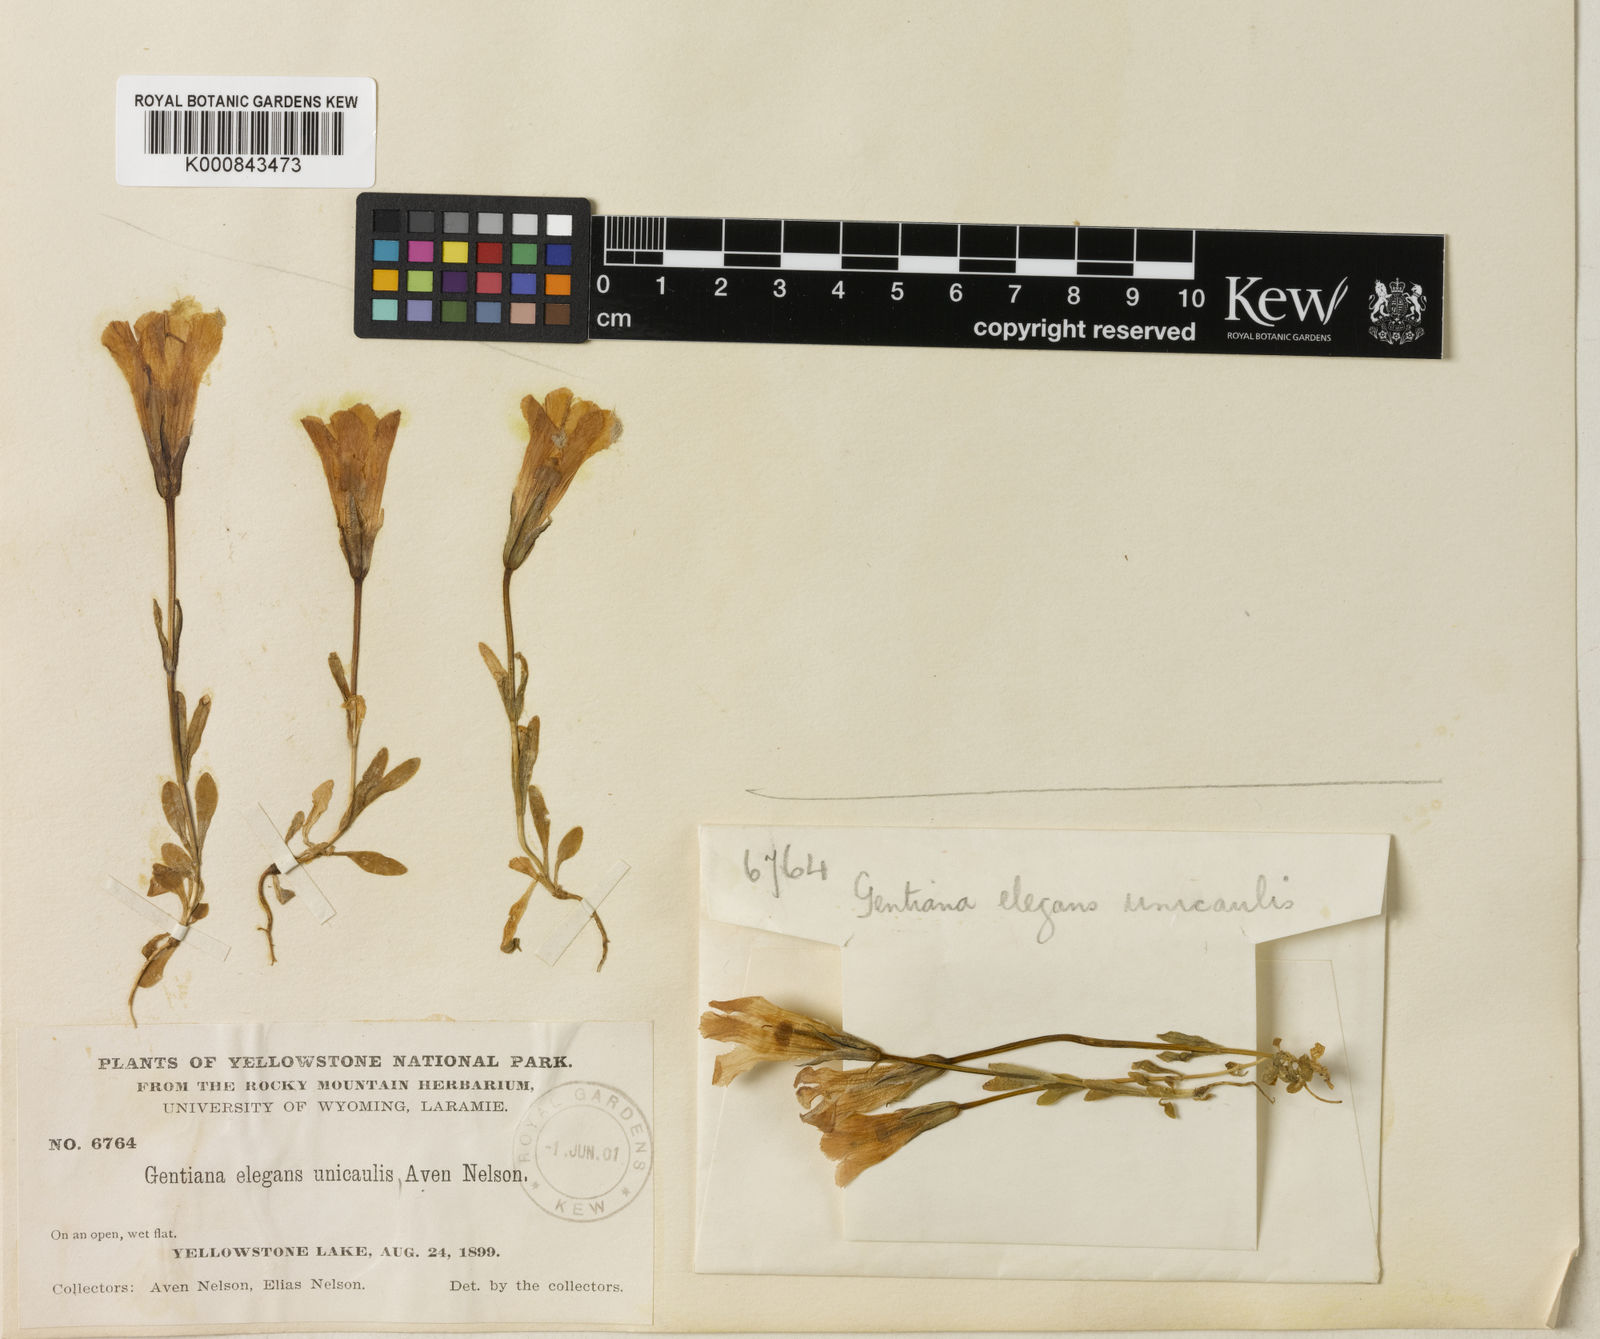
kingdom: Plantae
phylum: Tracheophyta
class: Magnoliopsida
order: Gentianales
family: Gentianaceae
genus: Gentianopsis
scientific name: Gentianopsis thermalis
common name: Rocky mountain fringed-gentian
